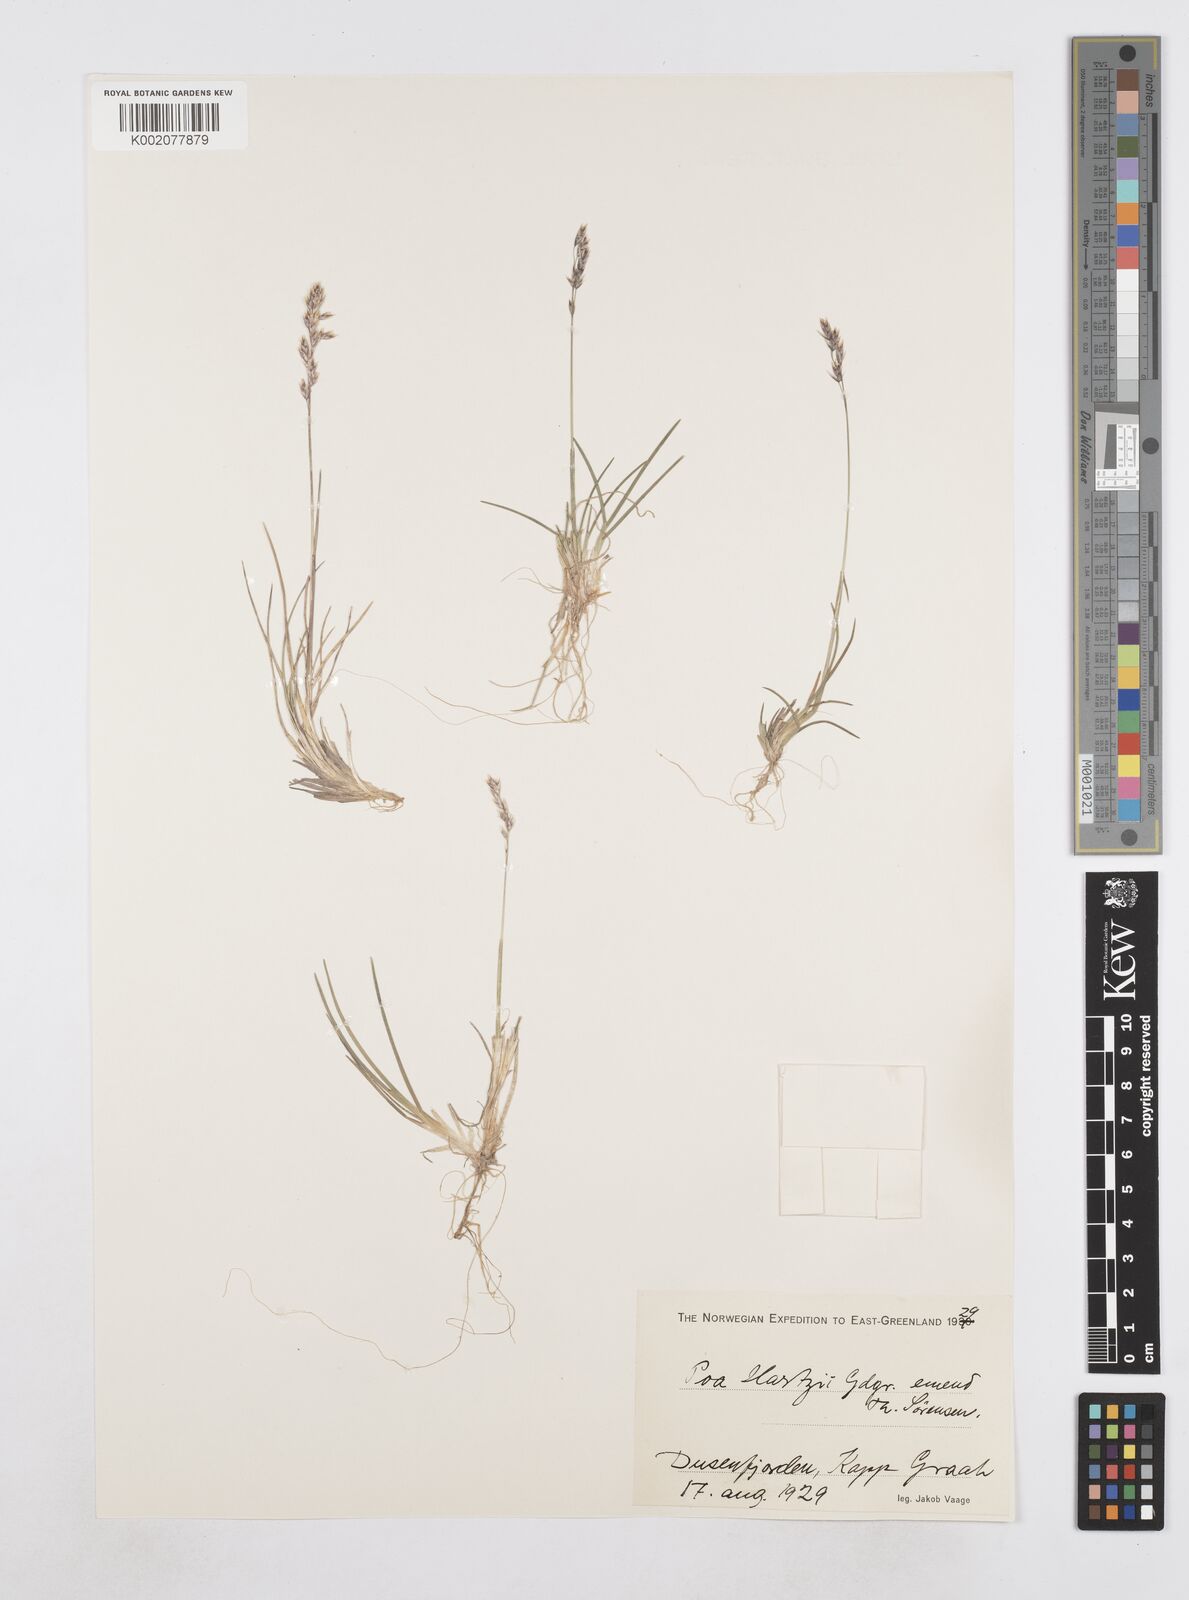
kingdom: Plantae
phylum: Tracheophyta
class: Liliopsida
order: Poales
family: Poaceae
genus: Poa
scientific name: Poa hartzii
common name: Hartz's bluegrass
